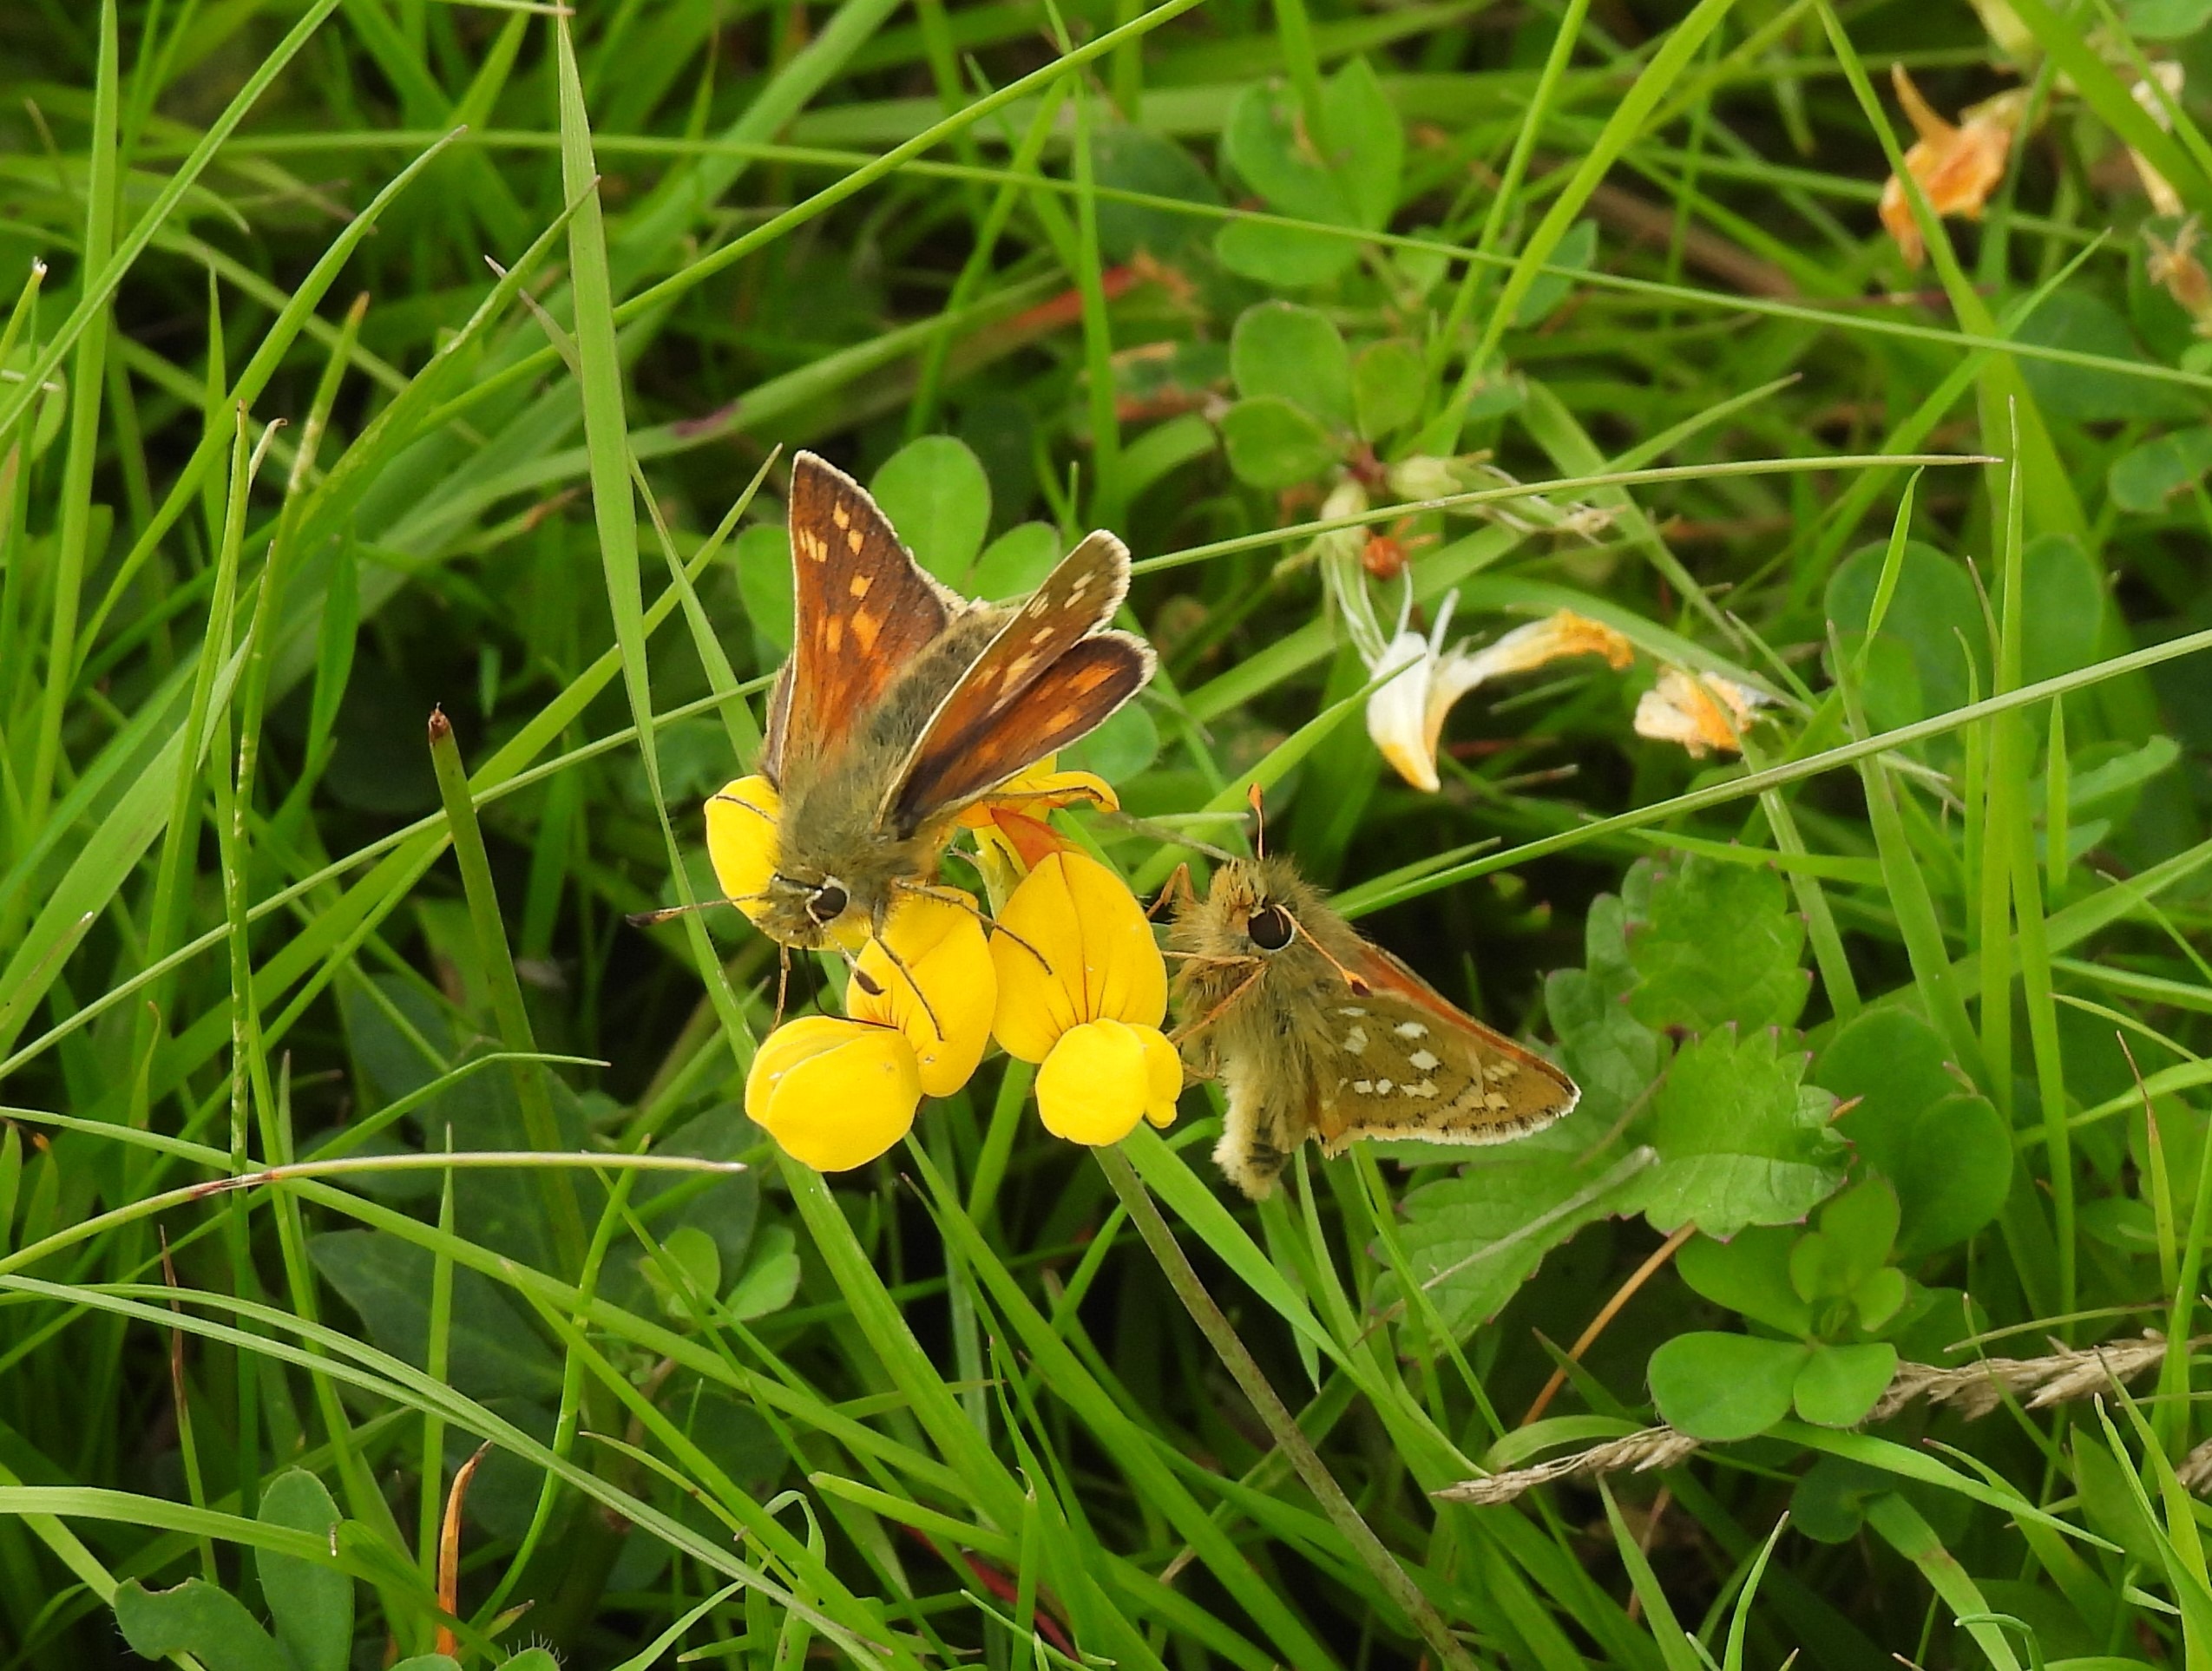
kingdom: Animalia
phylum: Arthropoda
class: Insecta
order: Lepidoptera
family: Hesperiidae
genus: Hesperia
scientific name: Hesperia comma
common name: Kommabredpande
